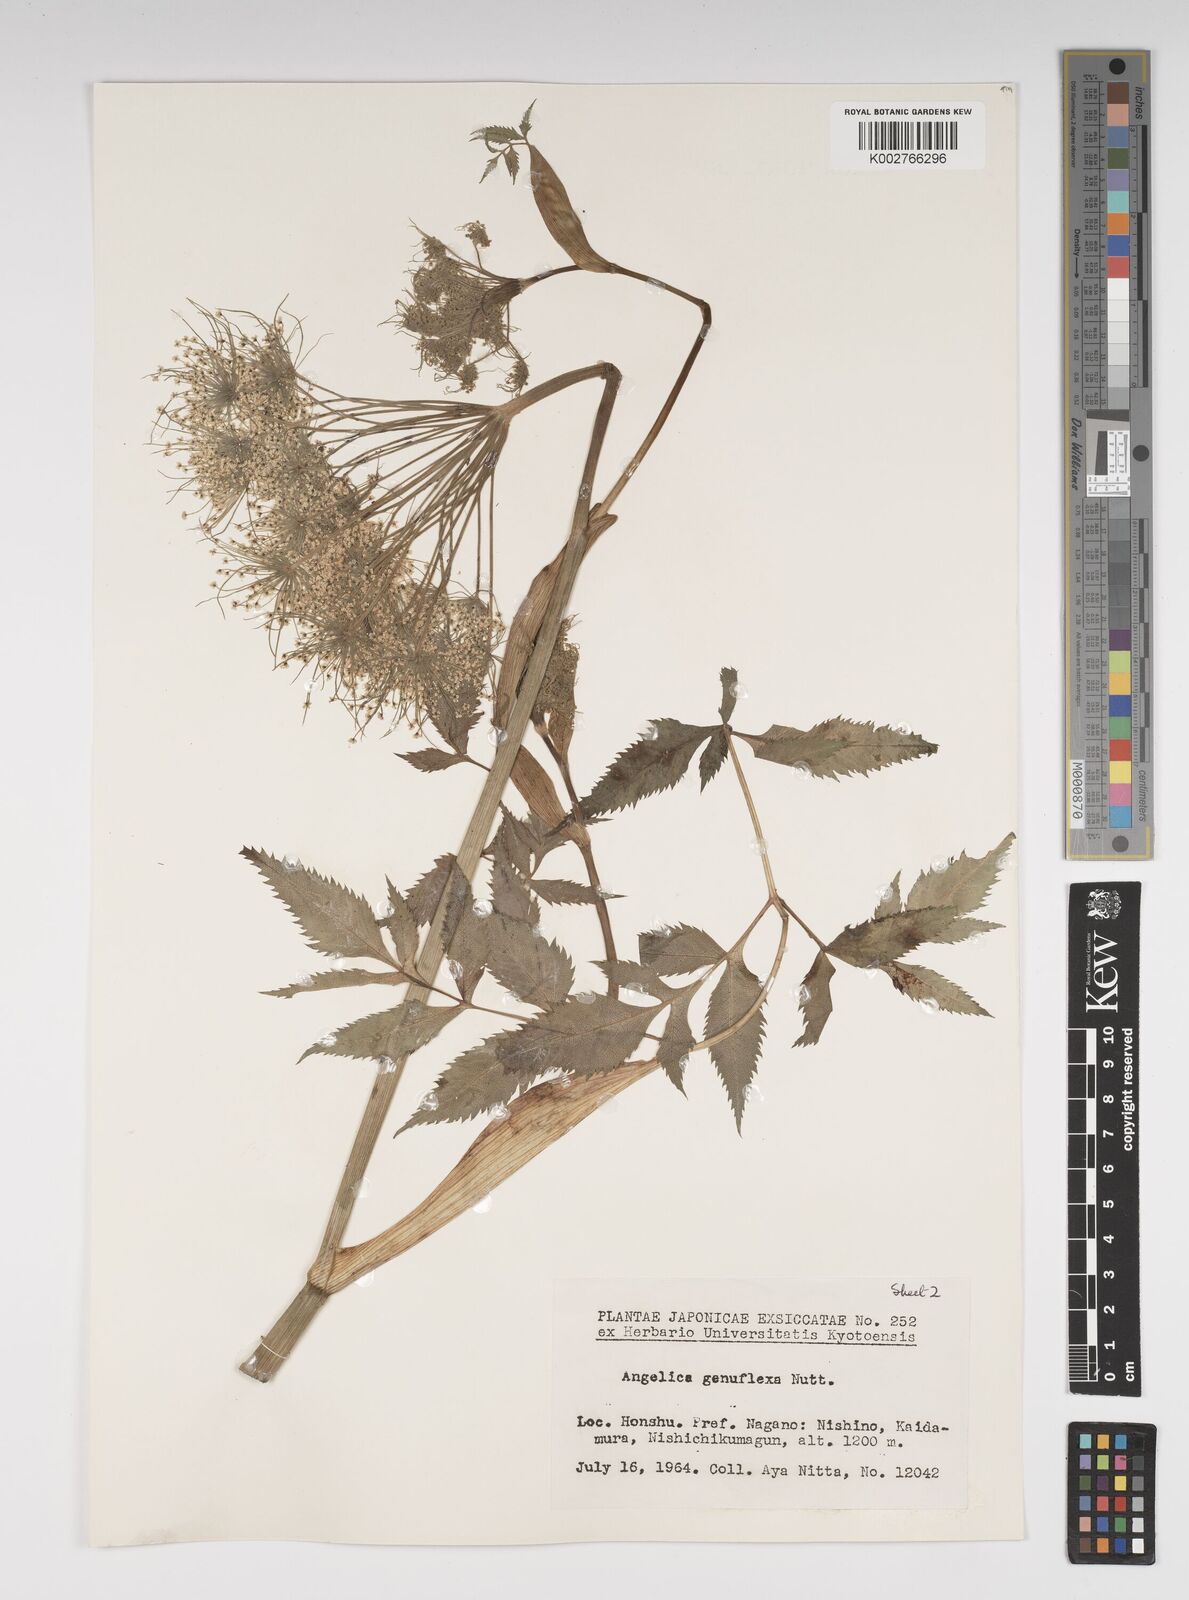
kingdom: Plantae
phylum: Tracheophyta
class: Magnoliopsida
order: Apiales
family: Apiaceae
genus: Angelica
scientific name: Angelica genuflexa
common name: Kneeling angelica
